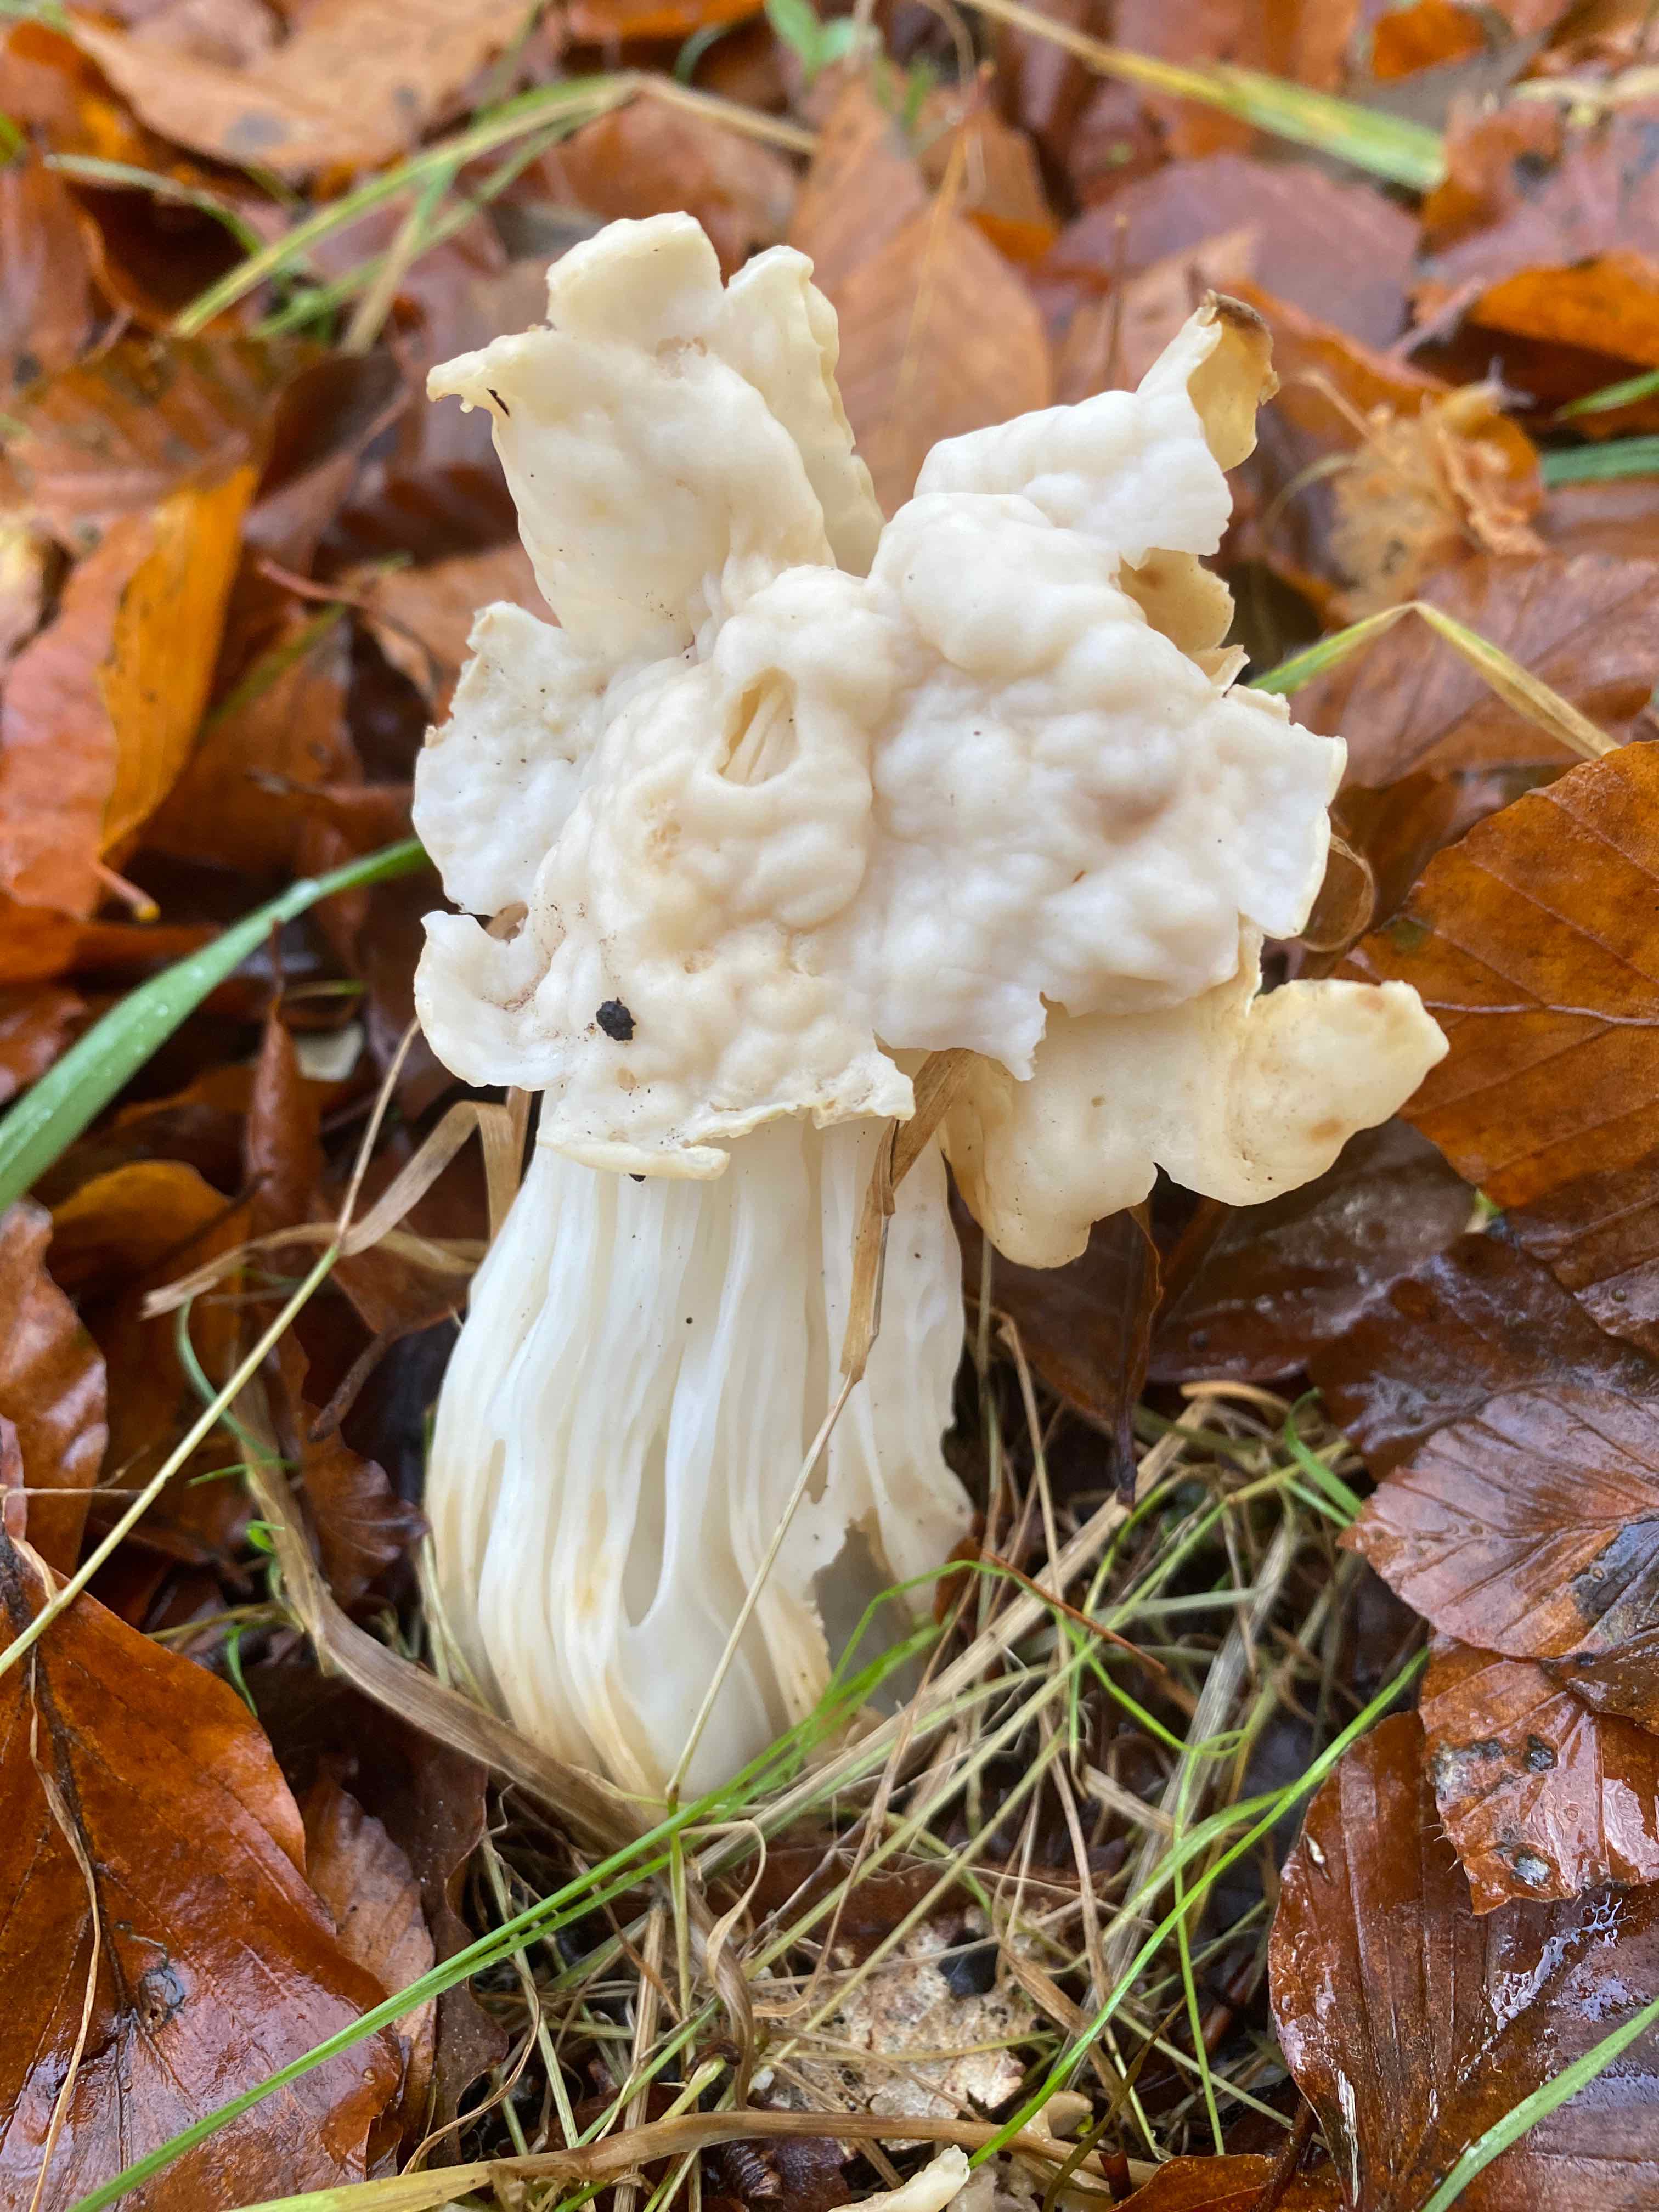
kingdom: Fungi
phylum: Ascomycota
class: Pezizomycetes
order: Pezizales
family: Helvellaceae
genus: Helvella
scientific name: Helvella crispa
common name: kruset foldhat
